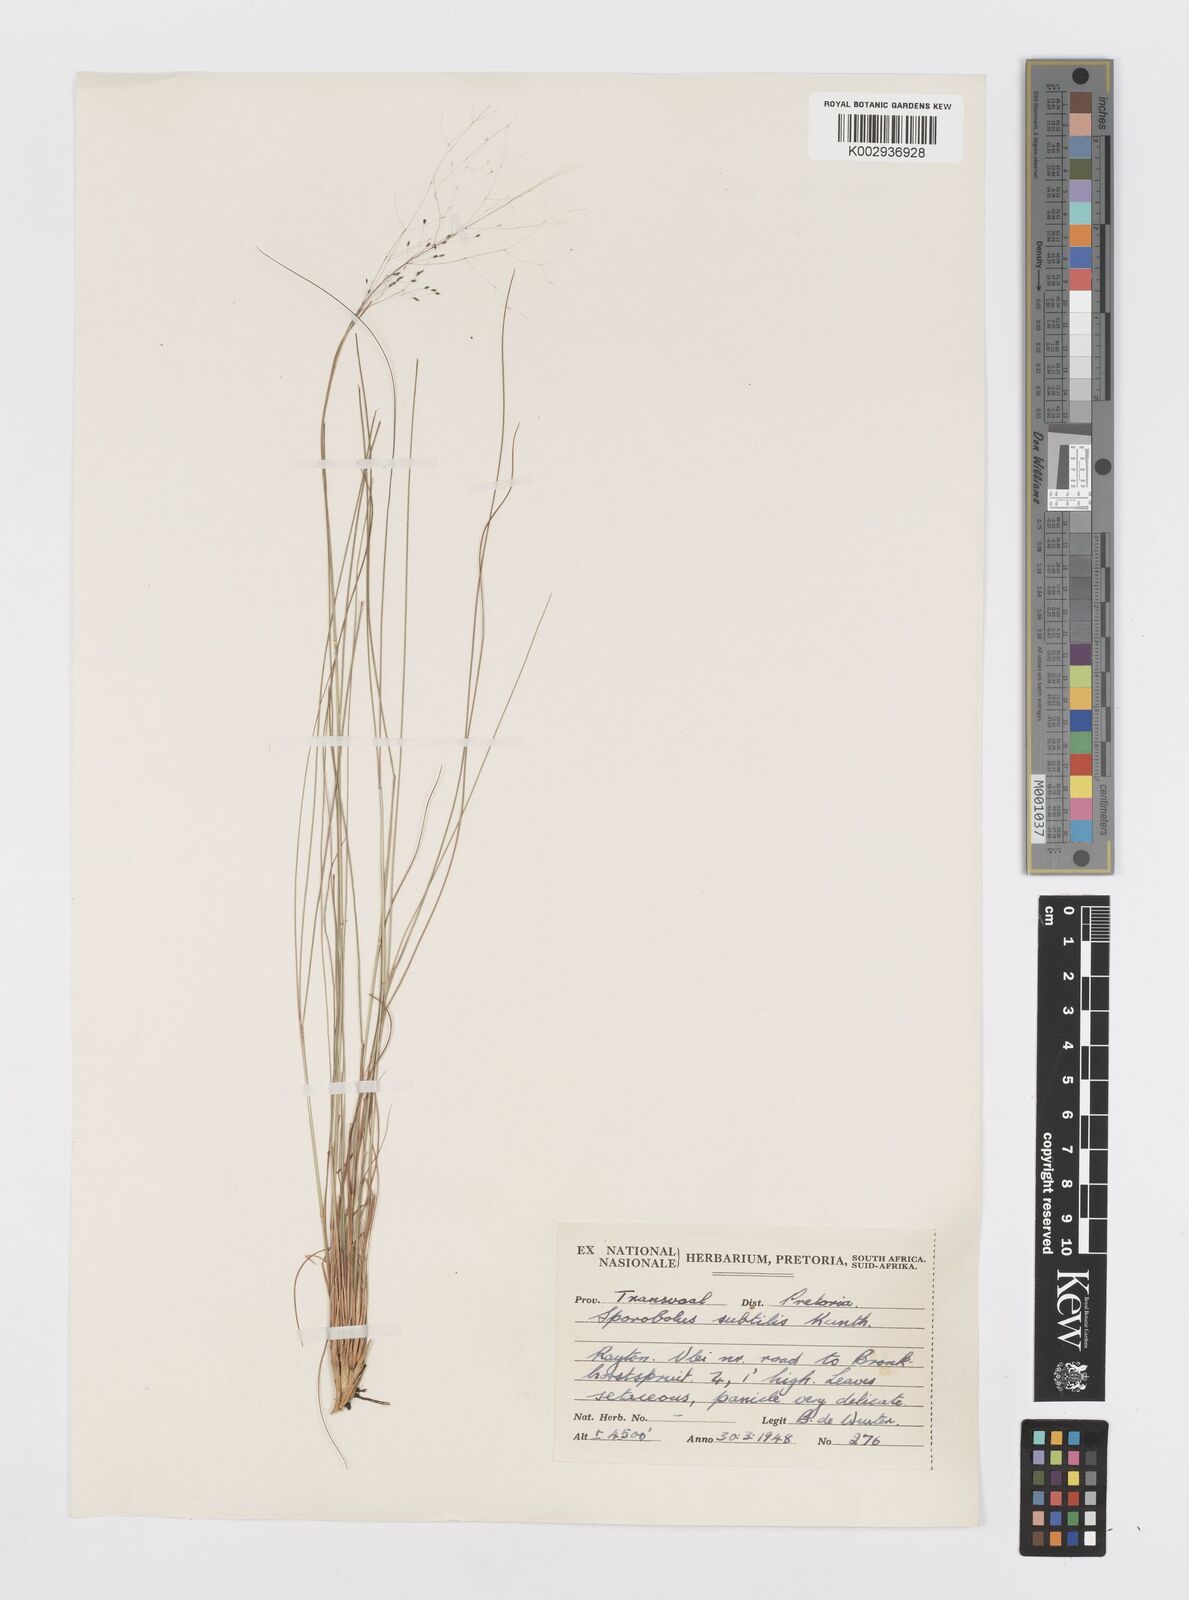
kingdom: Plantae
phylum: Tracheophyta
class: Liliopsida
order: Poales
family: Poaceae
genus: Sporobolus
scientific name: Sporobolus subtilis
